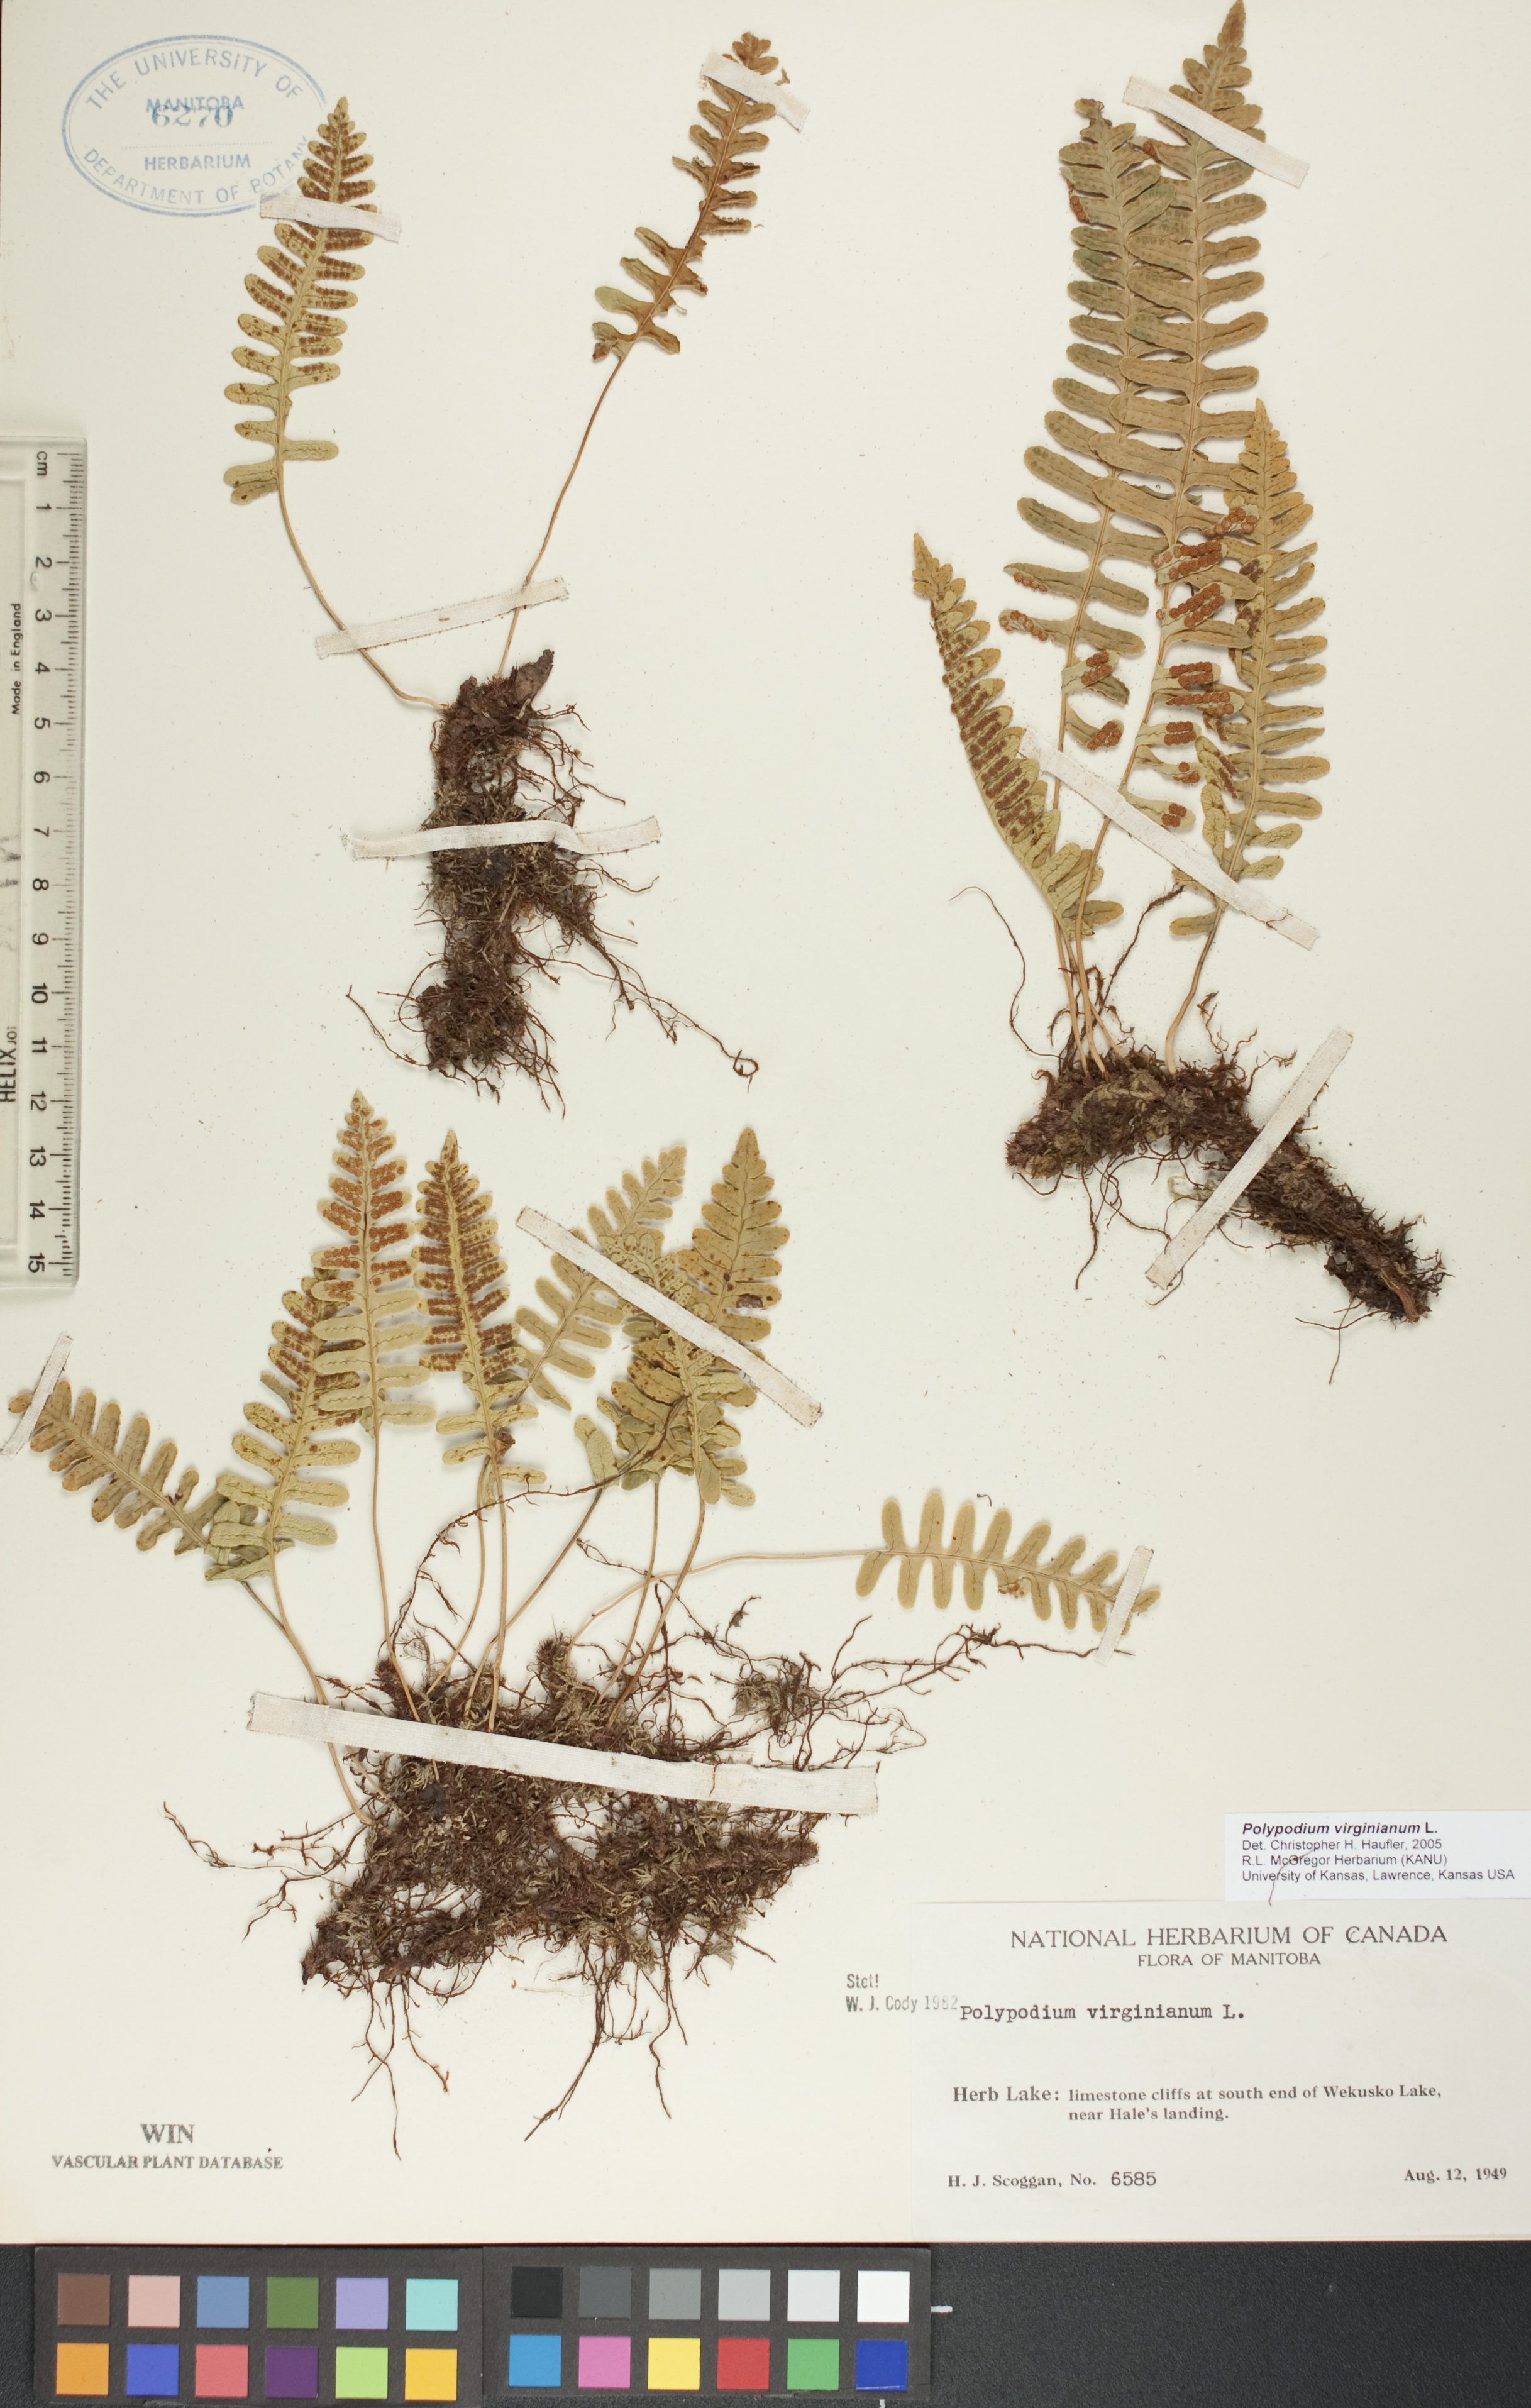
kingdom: Plantae
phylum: Tracheophyta
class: Polypodiopsida
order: Polypodiales
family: Polypodiaceae
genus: Polypodium
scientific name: Polypodium virginianum
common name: American wall fern
